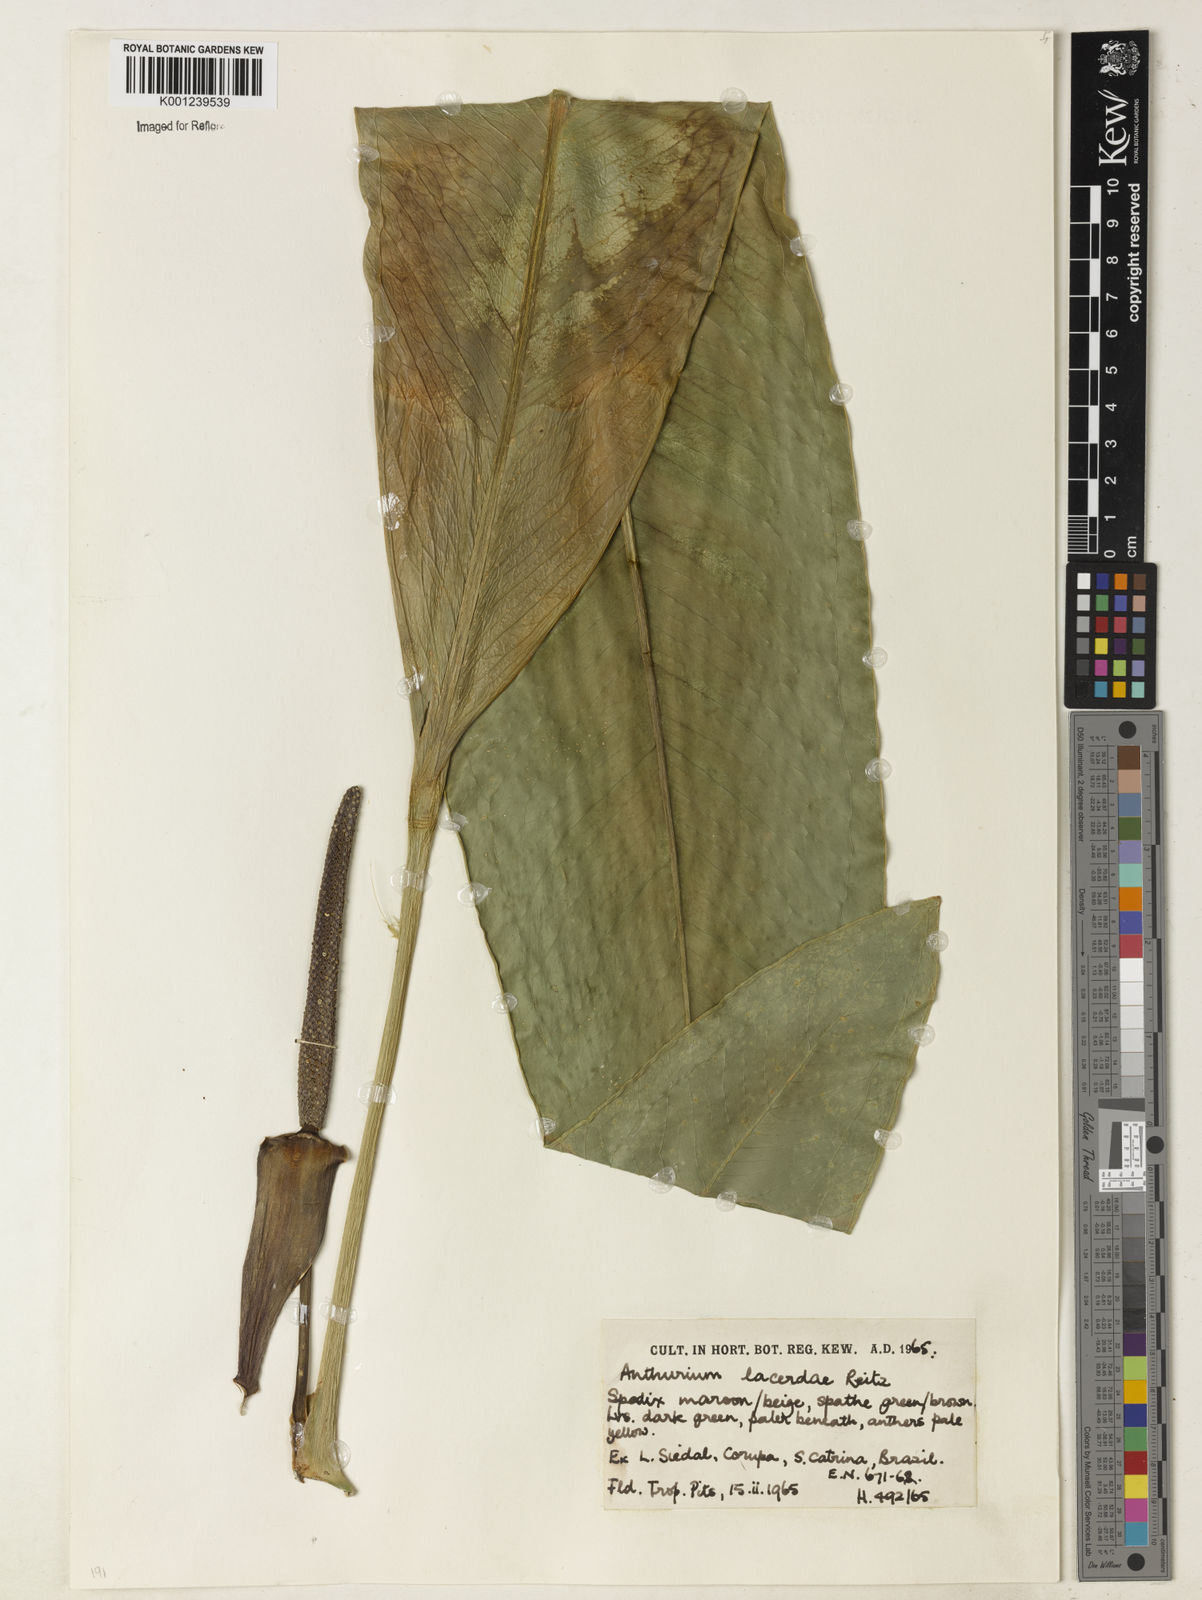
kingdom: Plantae
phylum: Tracheophyta
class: Liliopsida
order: Alismatales
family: Araceae
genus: Anthurium
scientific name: Anthurium lacerdae
